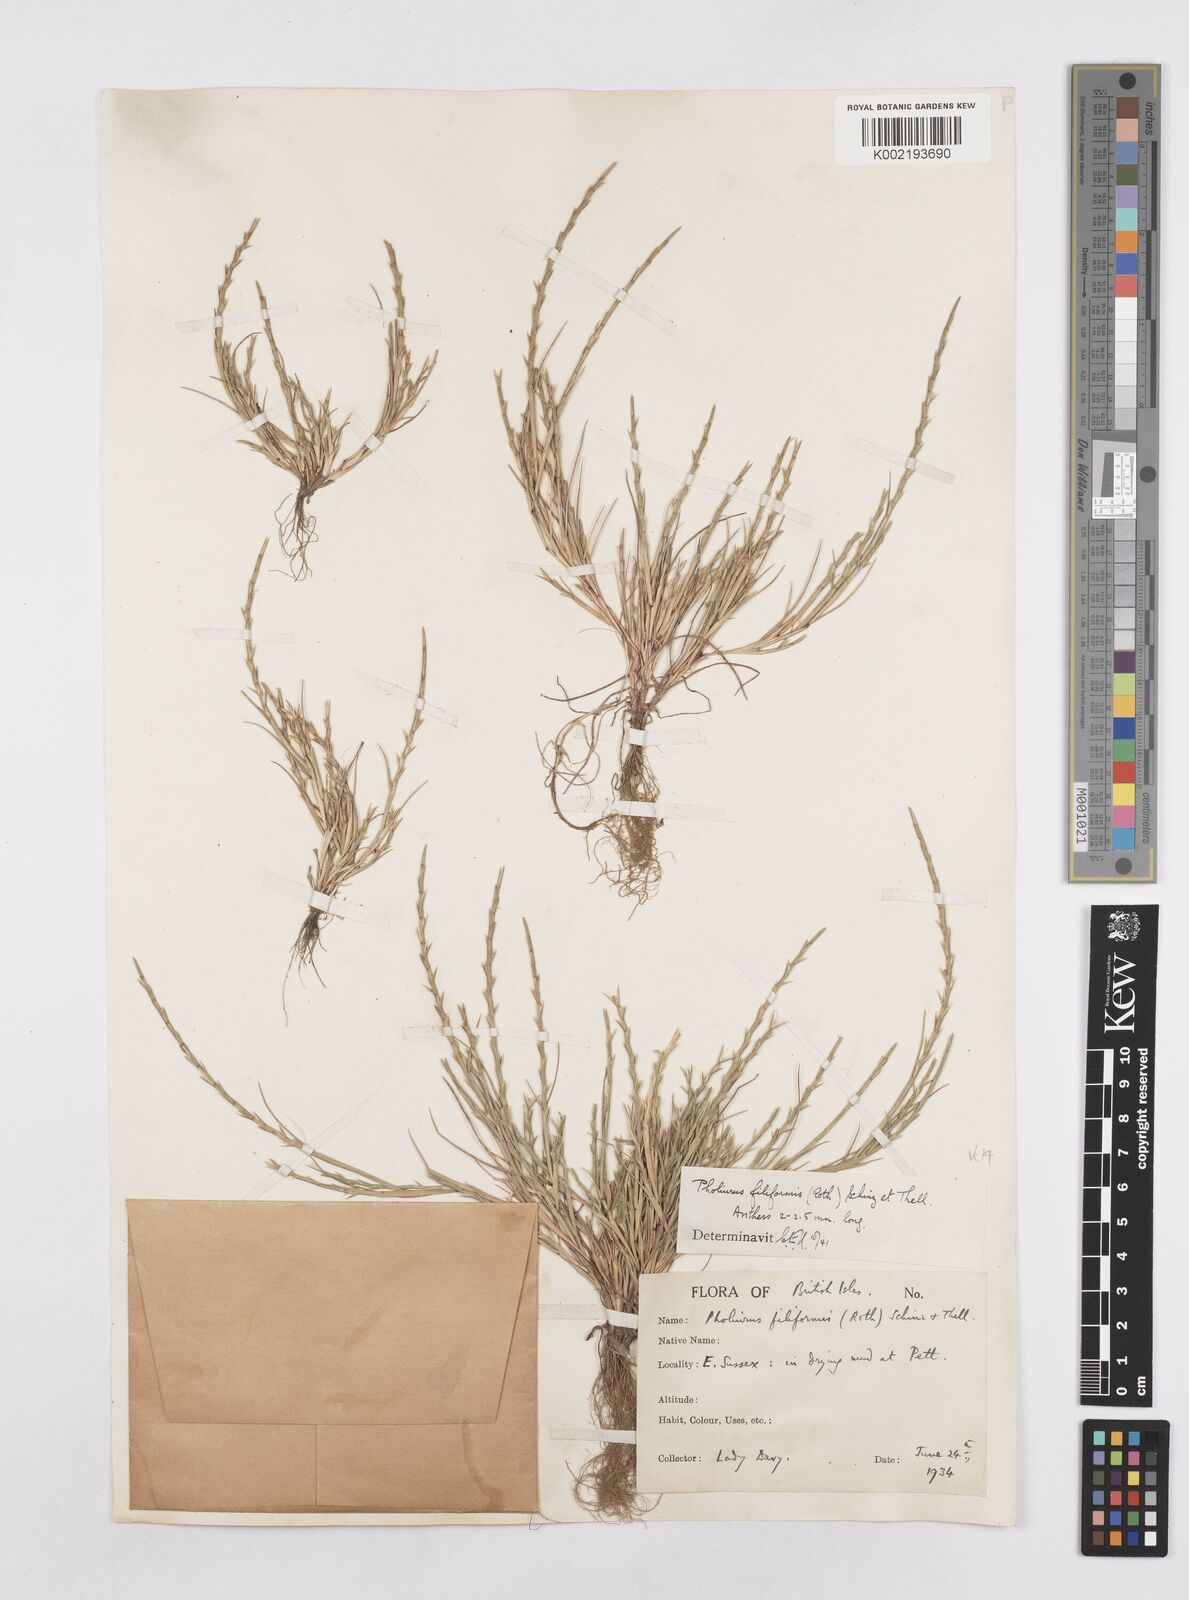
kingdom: Plantae
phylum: Tracheophyta
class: Liliopsida
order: Poales
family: Poaceae
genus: Parapholis
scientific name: Parapholis strigosa
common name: Hard-grass
